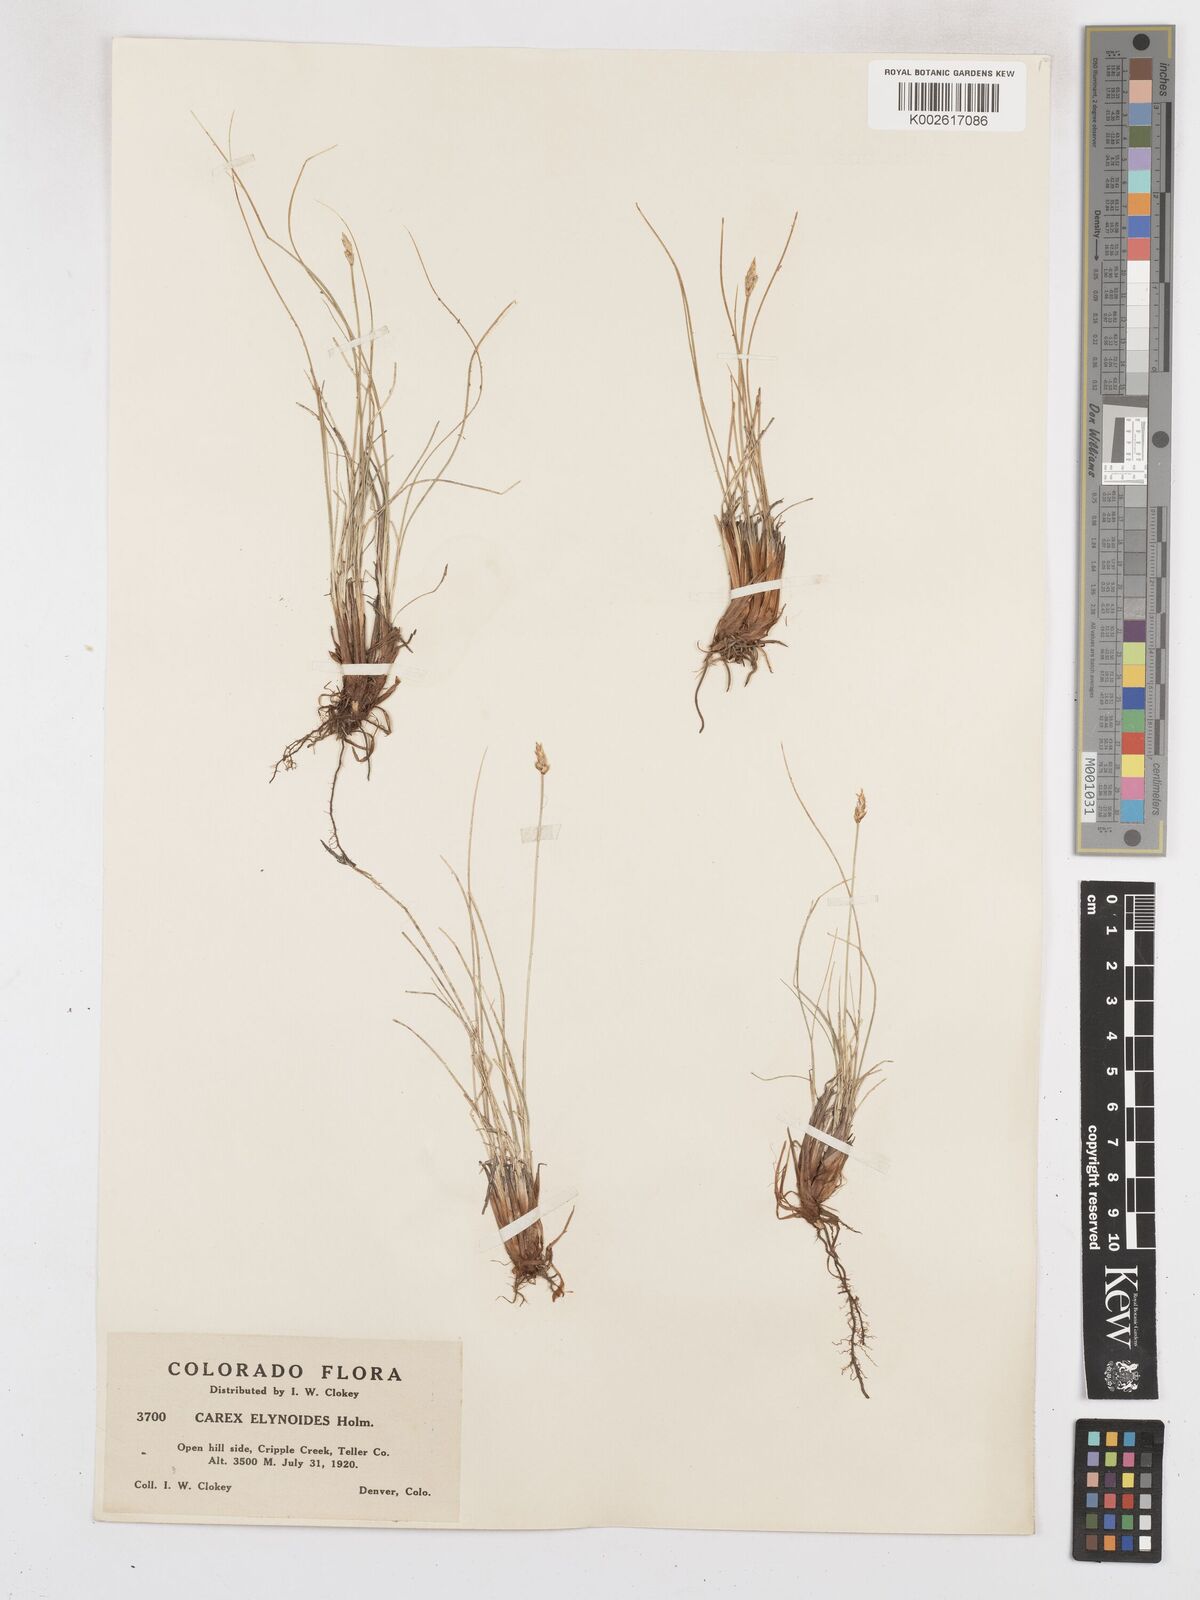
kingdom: Plantae
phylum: Tracheophyta
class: Liliopsida
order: Poales
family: Cyperaceae
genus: Carex
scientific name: Carex elynoides
